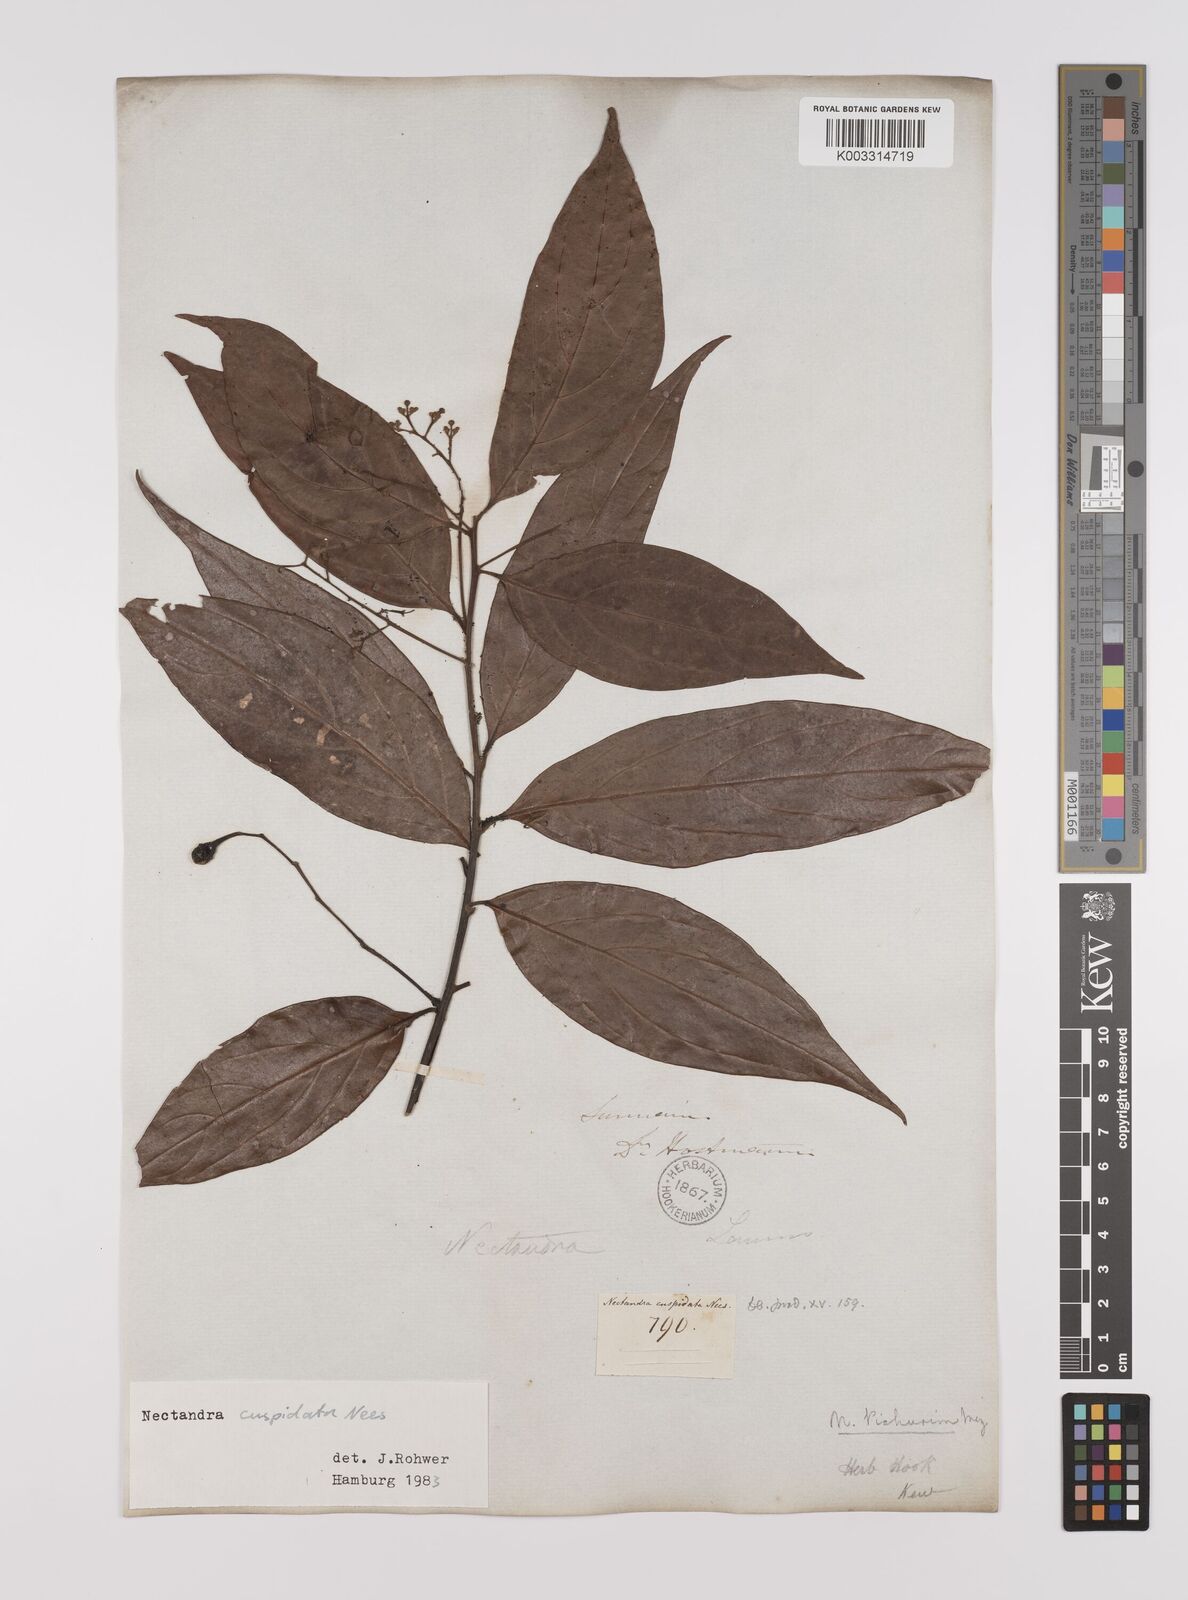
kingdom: Plantae
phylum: Tracheophyta
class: Magnoliopsida
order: Laurales
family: Lauraceae
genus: Nectandra
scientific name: Nectandra cuspidata
